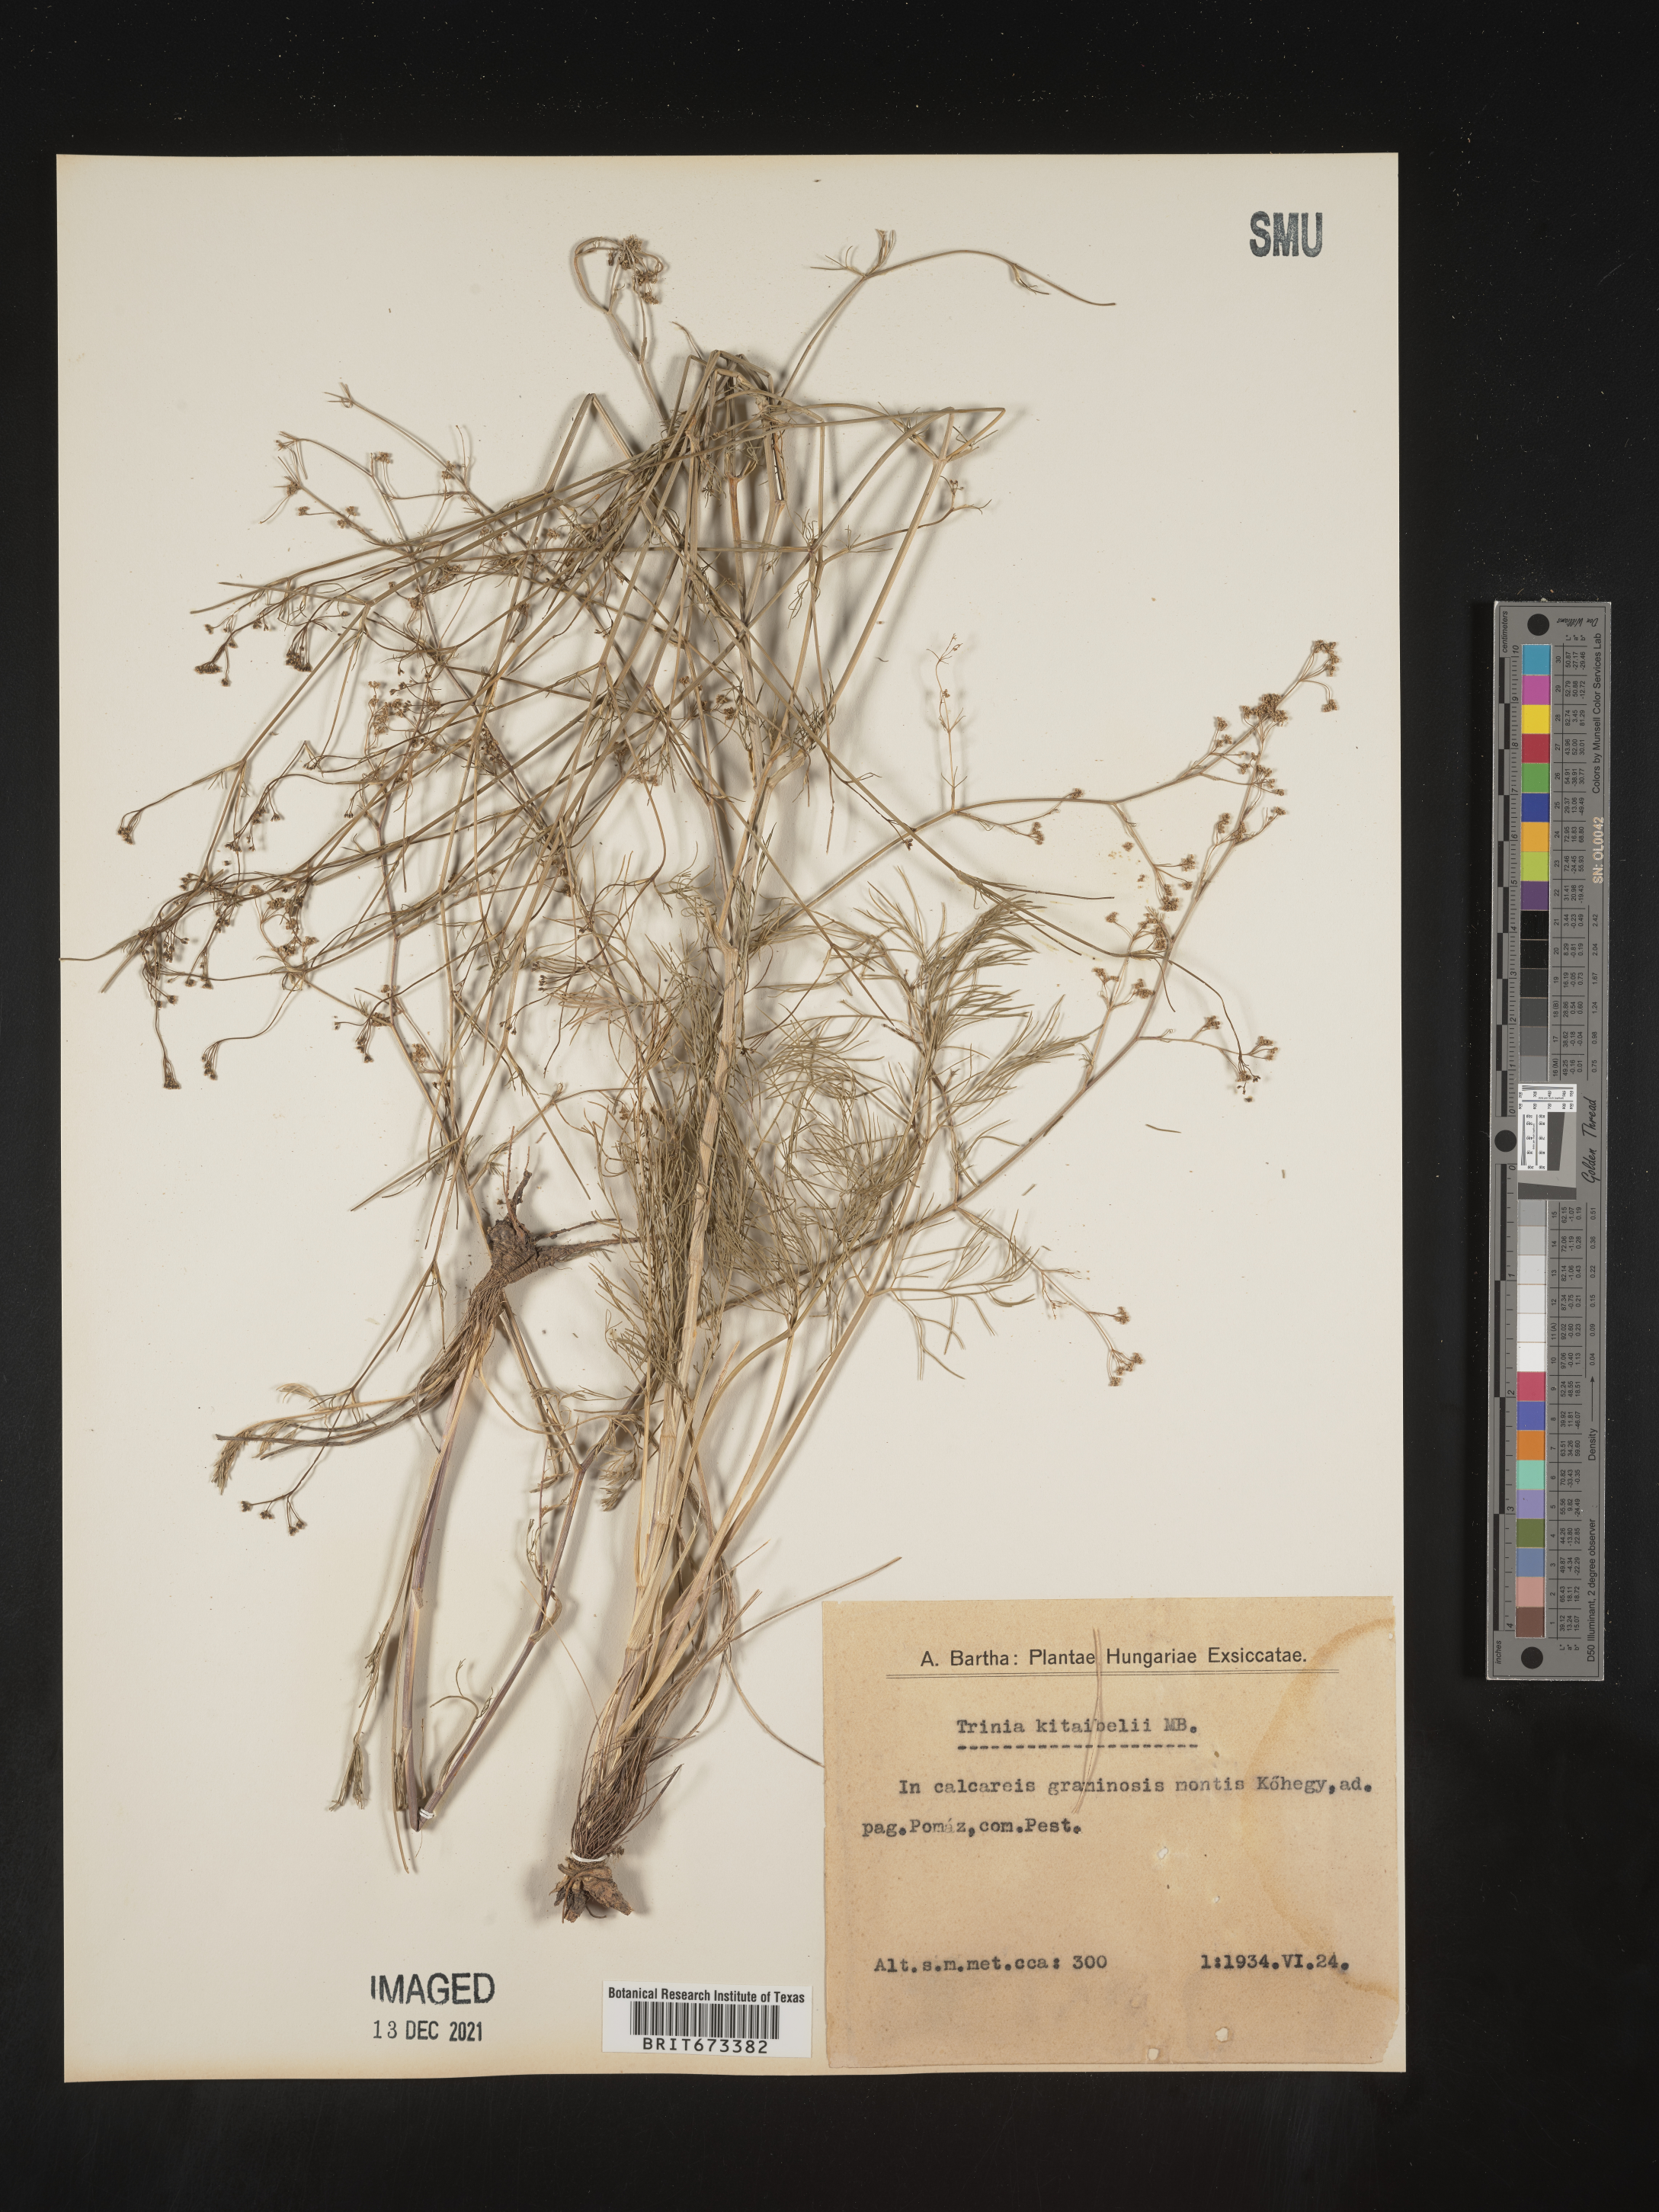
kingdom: Plantae
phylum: Tracheophyta
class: Magnoliopsida
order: Apiales
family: Apiaceae
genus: Trinia
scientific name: Trinia
